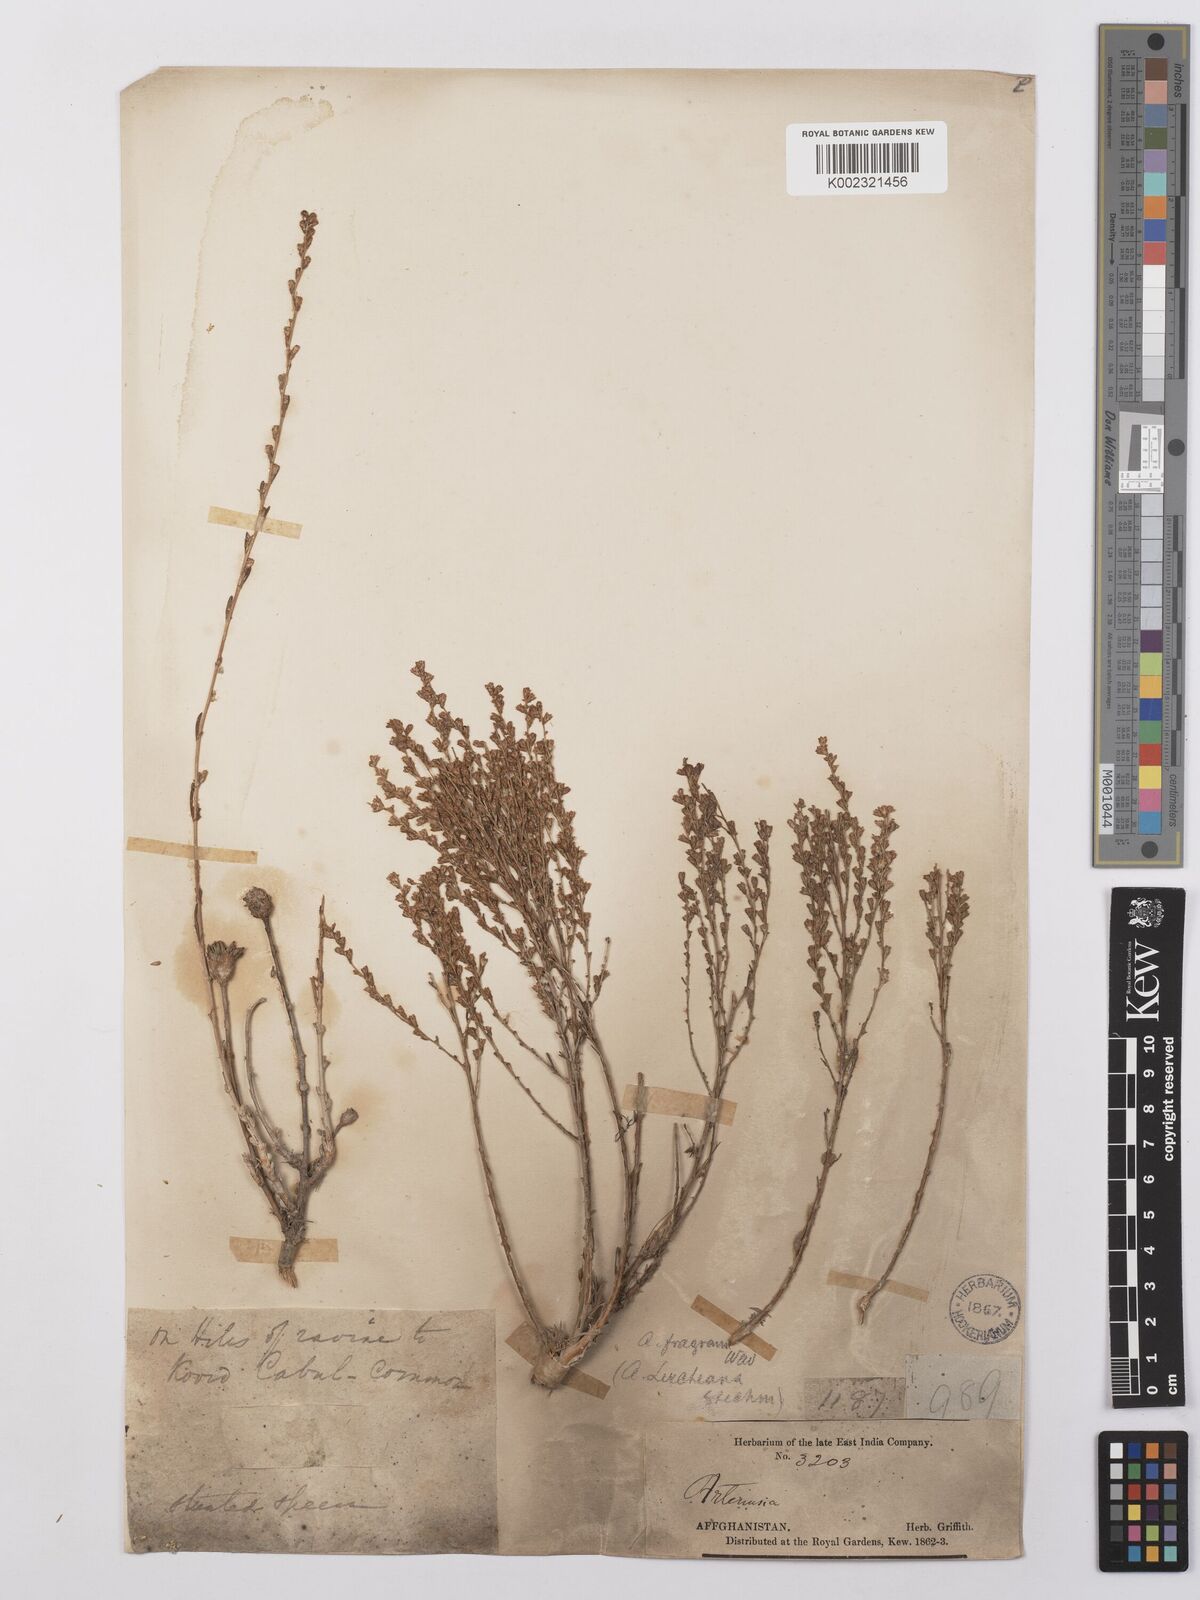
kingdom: Plantae
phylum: Tracheophyta
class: Magnoliopsida
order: Asterales
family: Asteraceae
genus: Artemisia
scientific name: Artemisia fragrans
